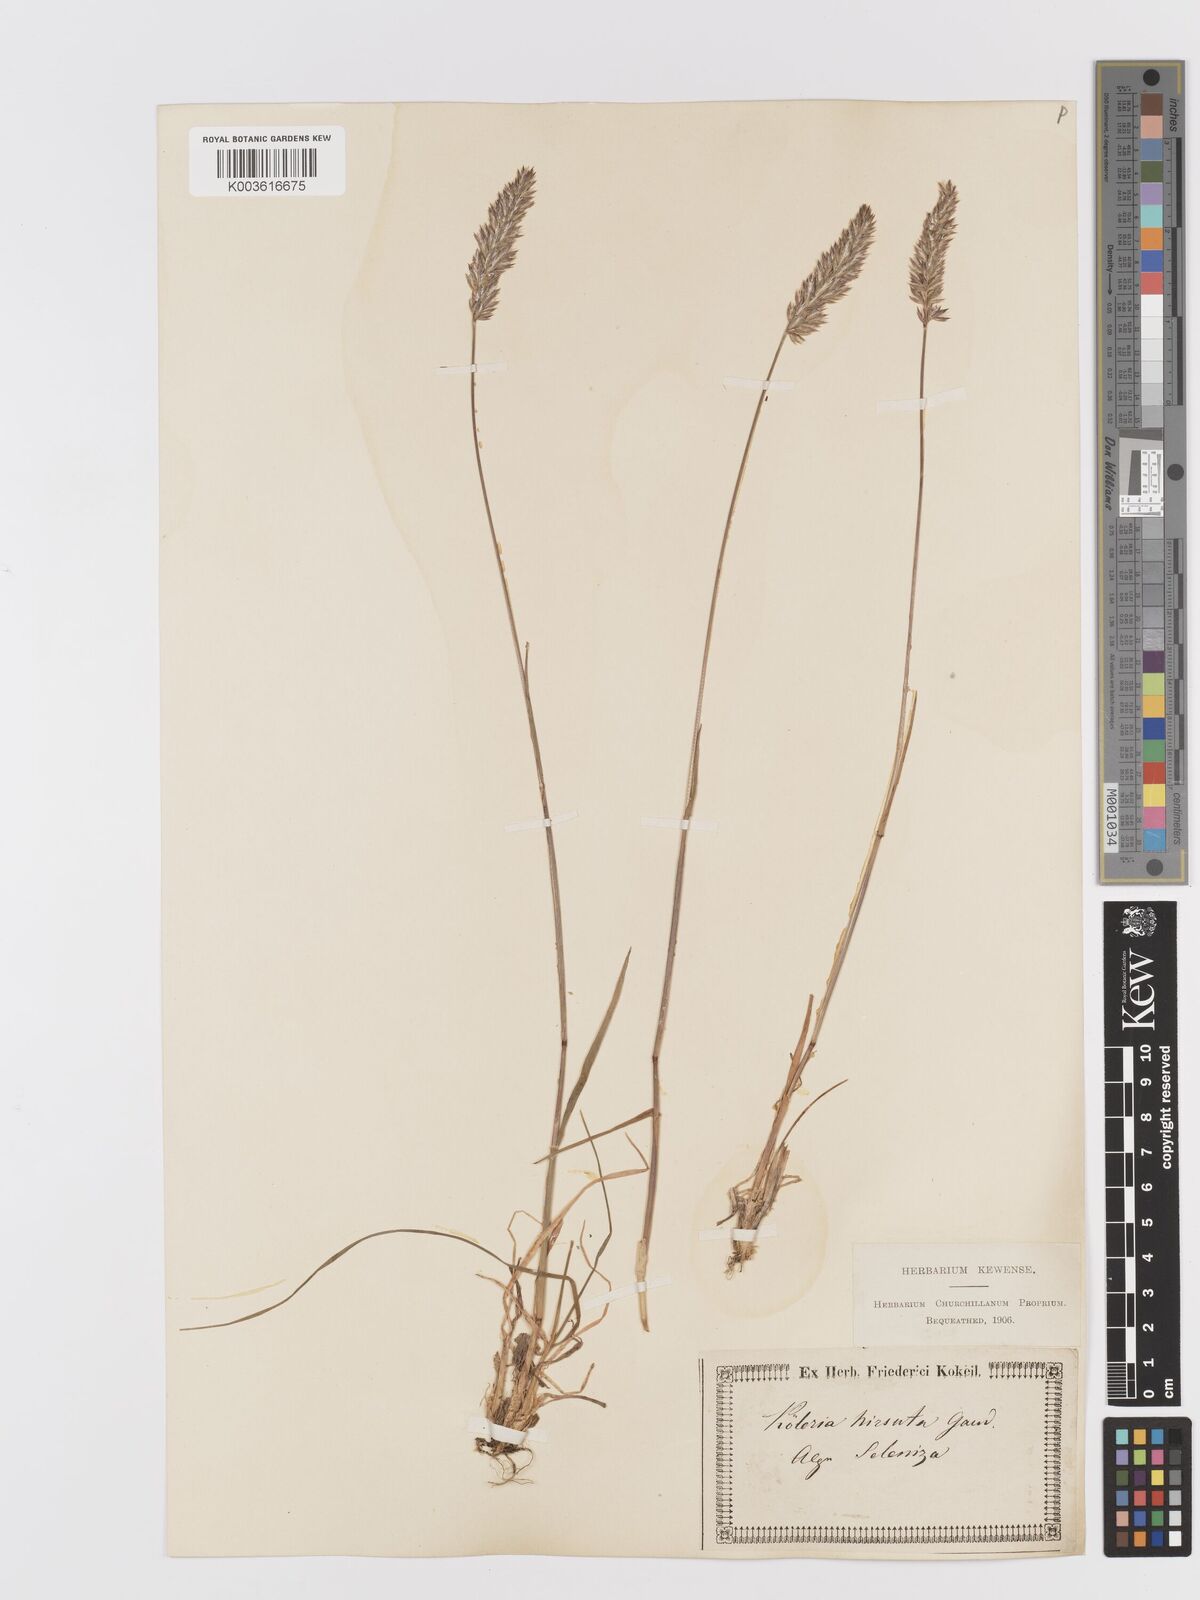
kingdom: Plantae
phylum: Tracheophyta
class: Liliopsida
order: Poales
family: Poaceae
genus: Koeleria
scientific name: Koeleria hirsuta
